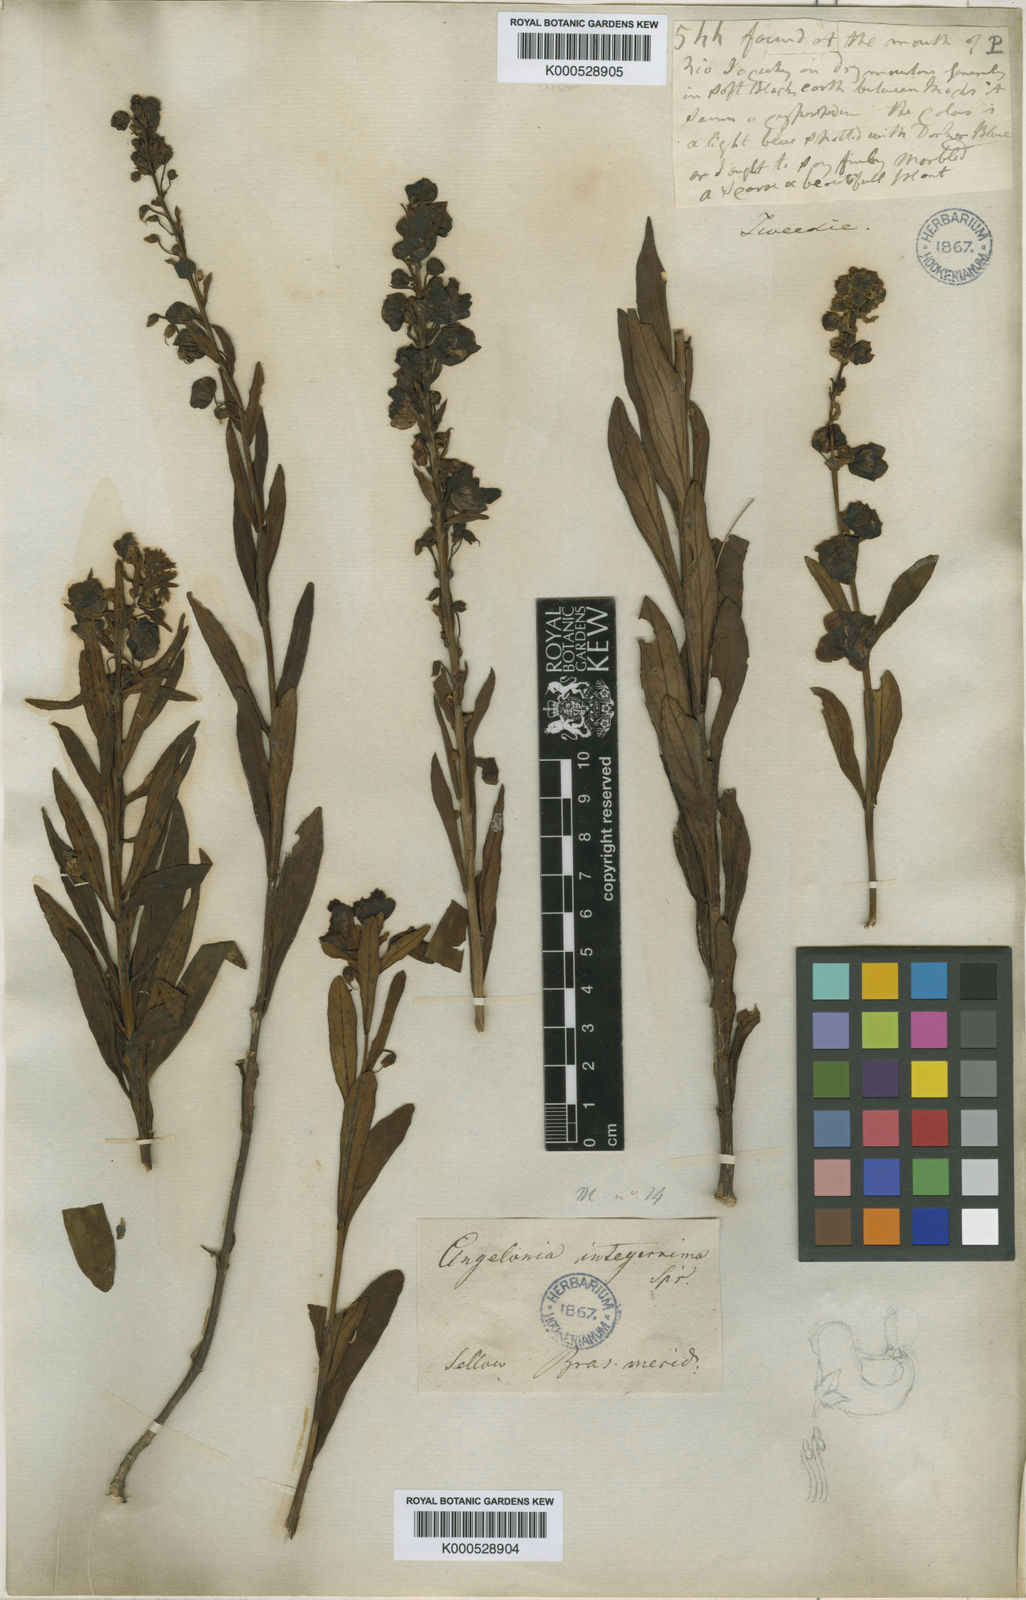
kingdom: Plantae
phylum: Tracheophyta
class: Magnoliopsida
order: Lamiales
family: Plantaginaceae
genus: Angelonia
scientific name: Angelonia integerrima
